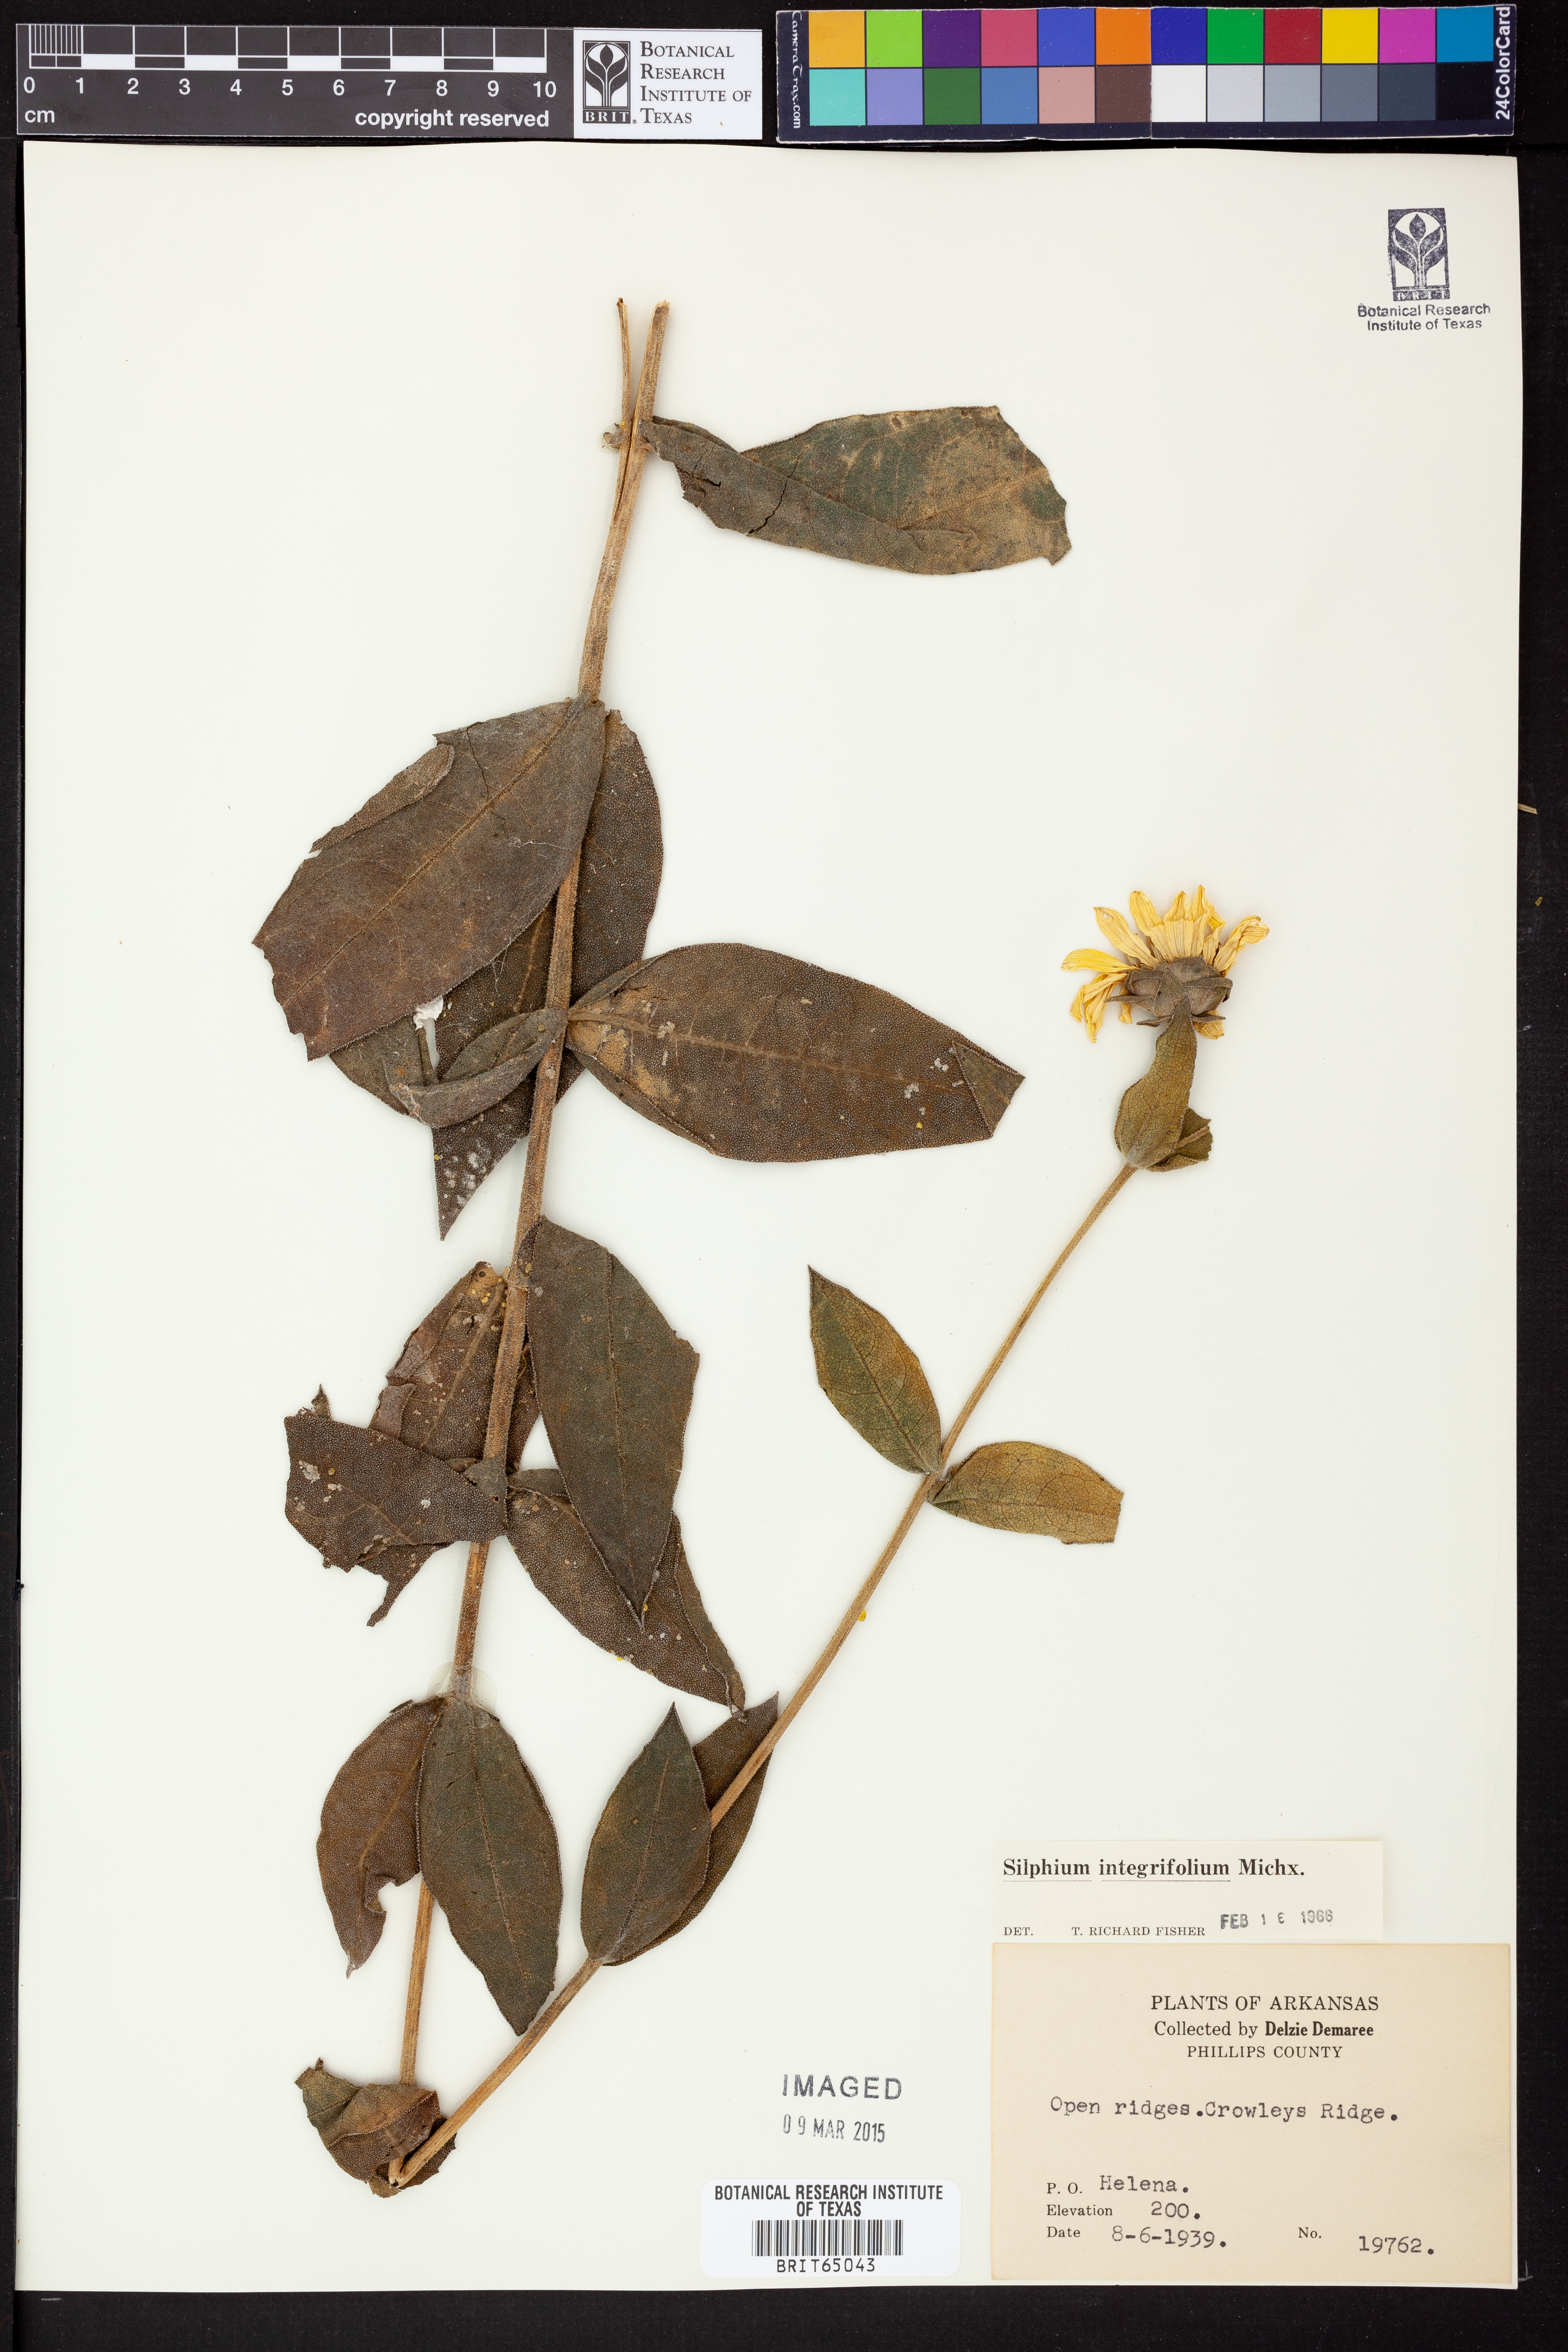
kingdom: Plantae
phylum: Tracheophyta
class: Magnoliopsida
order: Asterales
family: Asteraceae
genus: Silphium
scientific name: Silphium integrifolium
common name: Whole-leaf rosinweed
